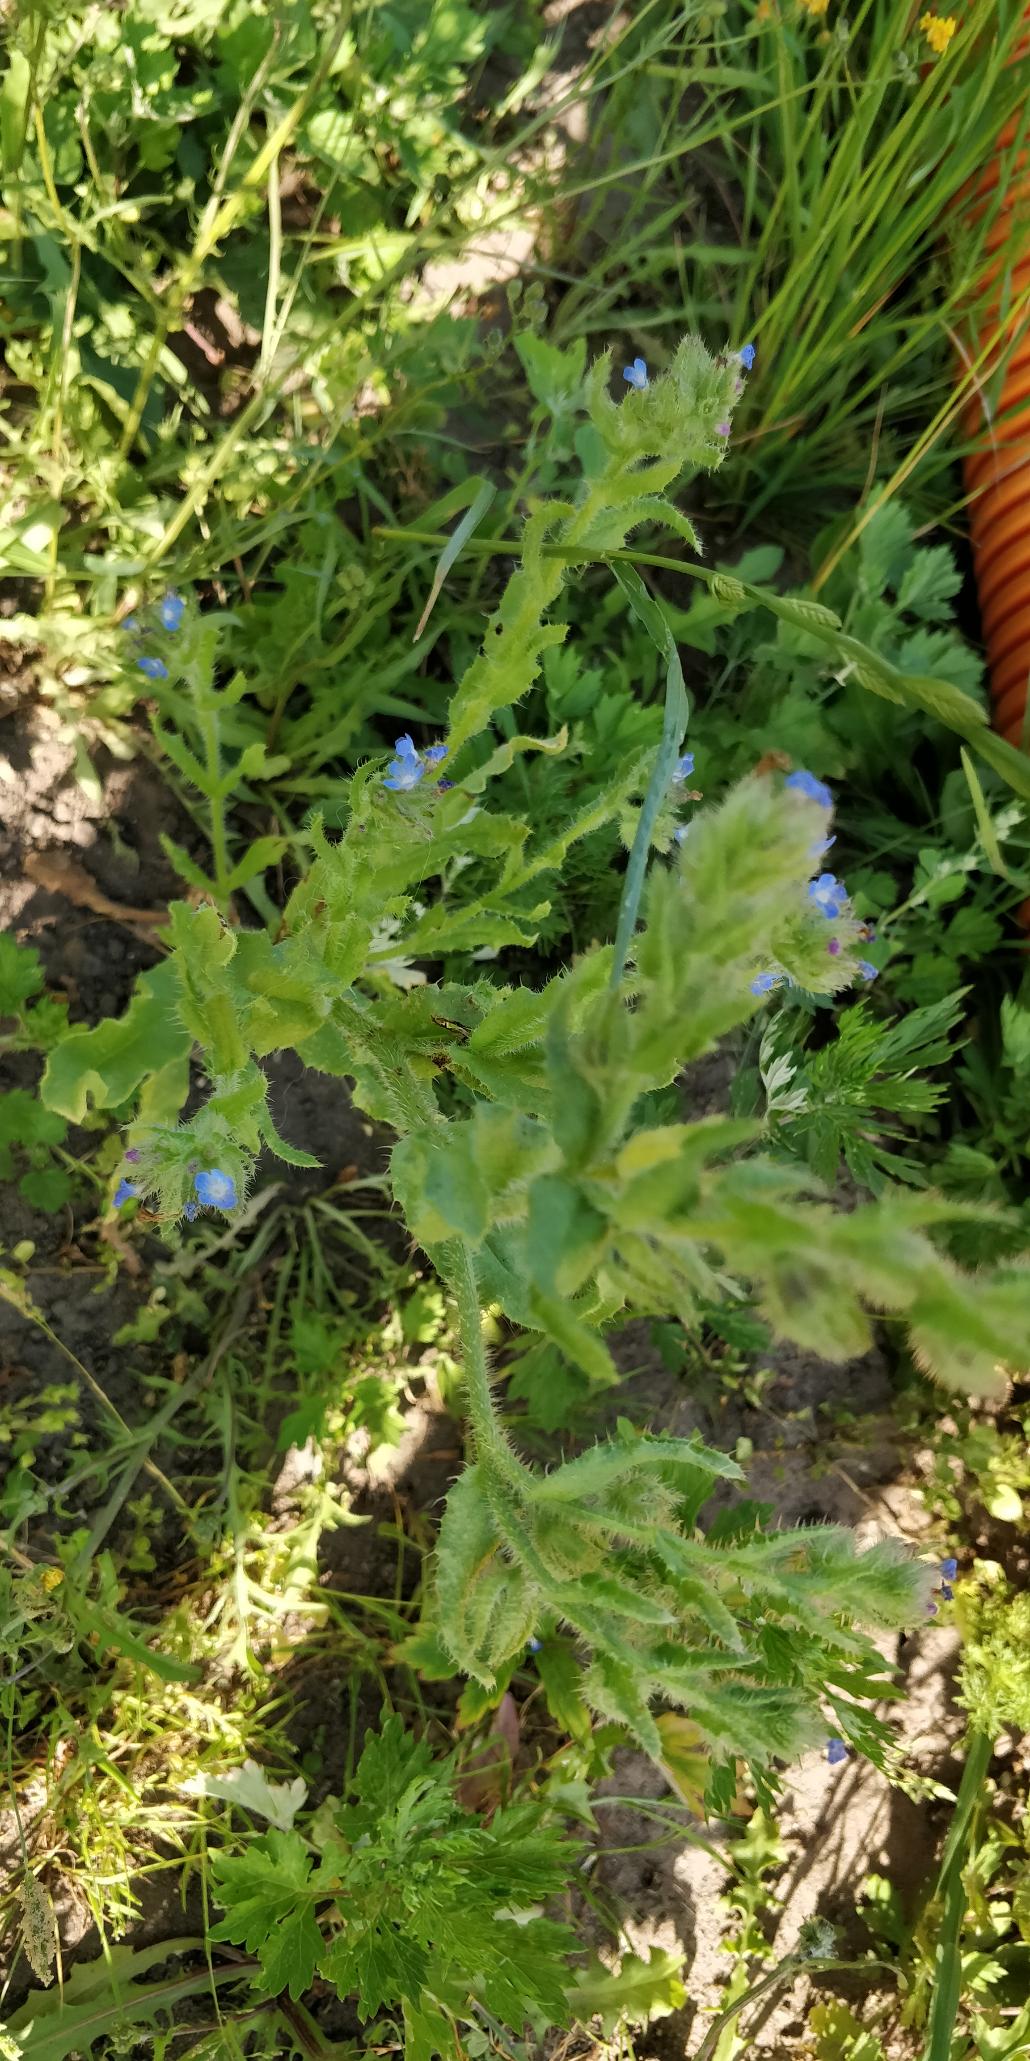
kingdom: Plantae
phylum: Tracheophyta
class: Magnoliopsida
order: Boraginales
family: Boraginaceae
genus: Lycopsis
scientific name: Lycopsis arvensis
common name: Krumhals
